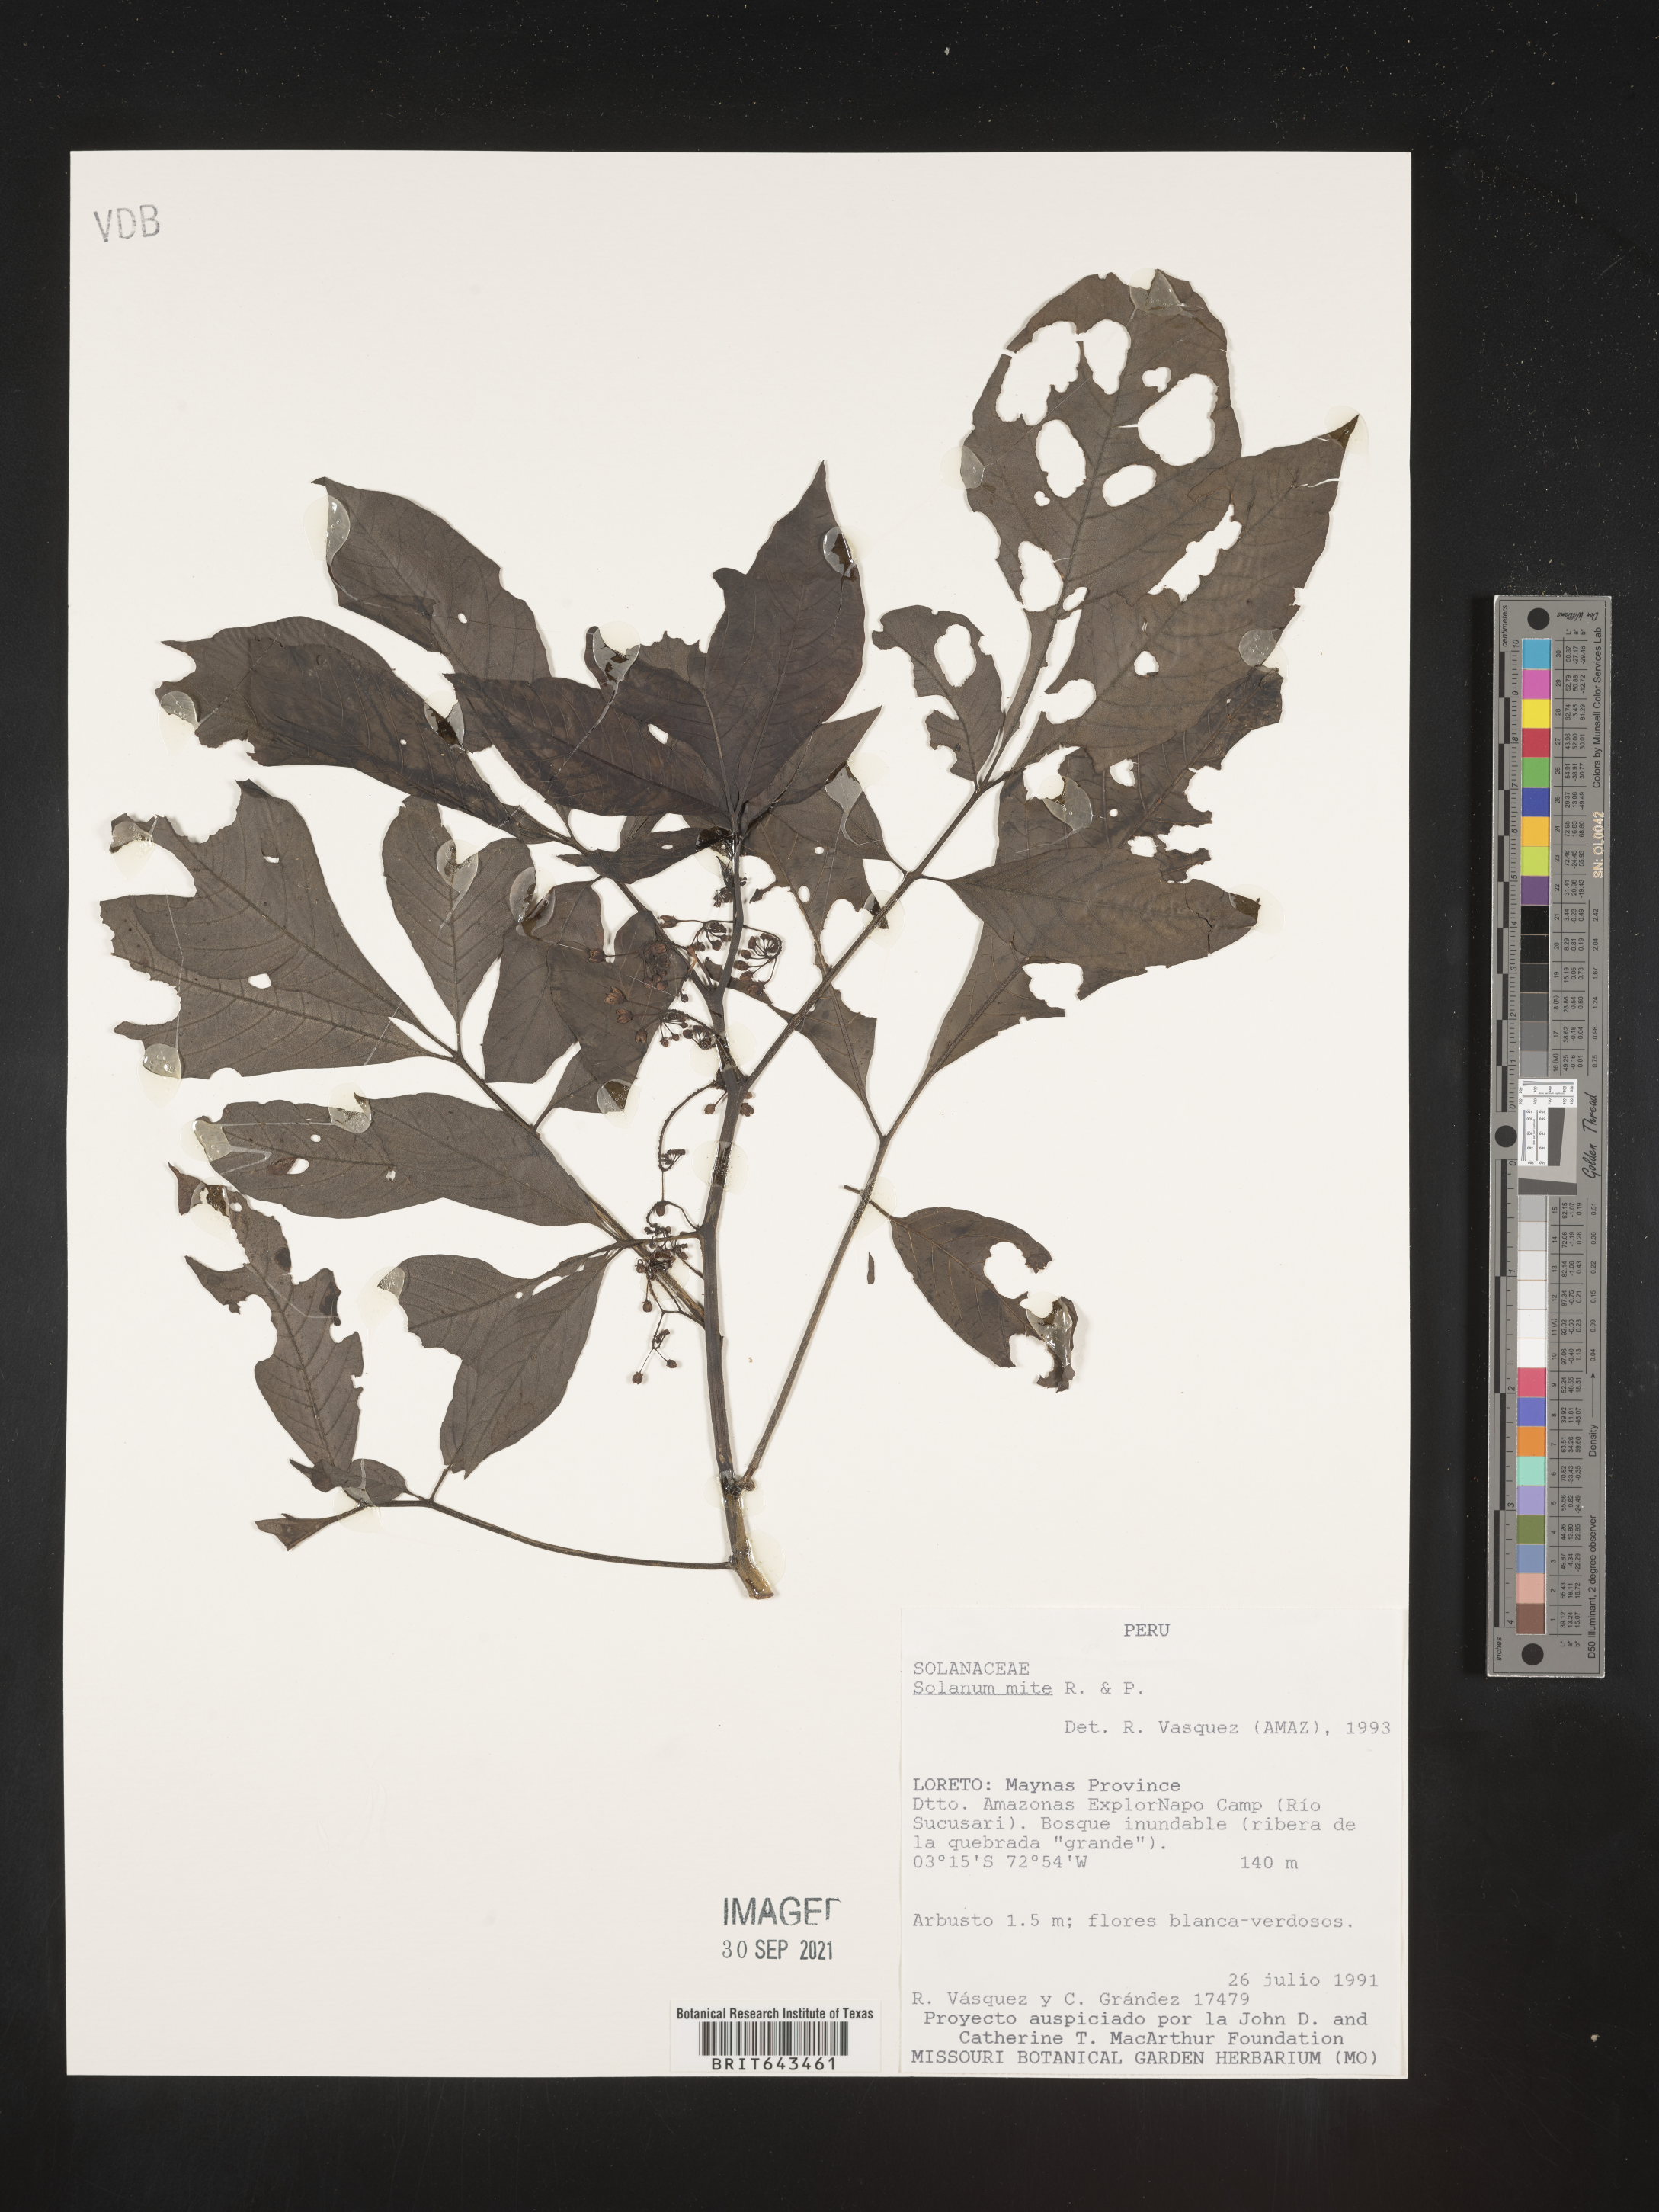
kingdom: Plantae
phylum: Tracheophyta
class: Magnoliopsida
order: Solanales
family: Solanaceae
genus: Solanum
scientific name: Solanum
